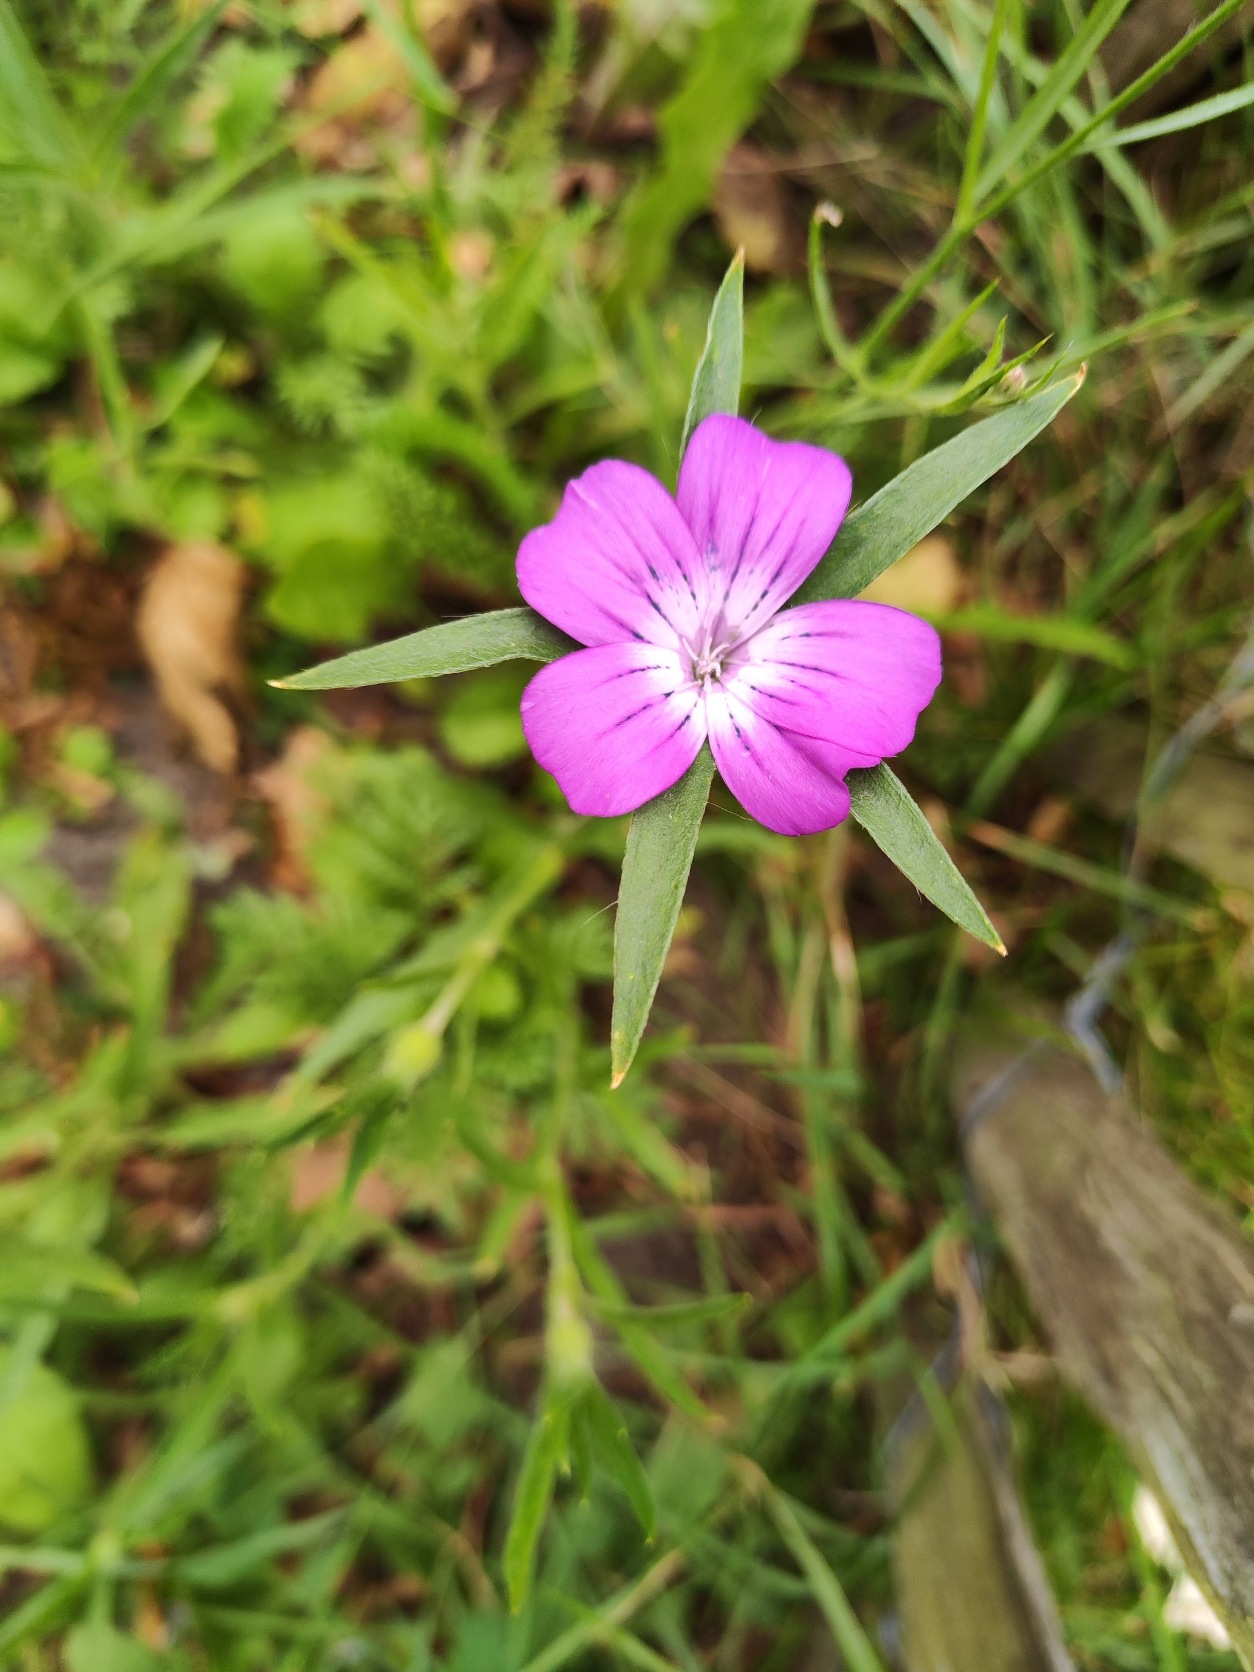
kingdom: Plantae
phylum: Tracheophyta
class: Magnoliopsida
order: Caryophyllales
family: Caryophyllaceae
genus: Agrostemma
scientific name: Agrostemma githago
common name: Klinte
